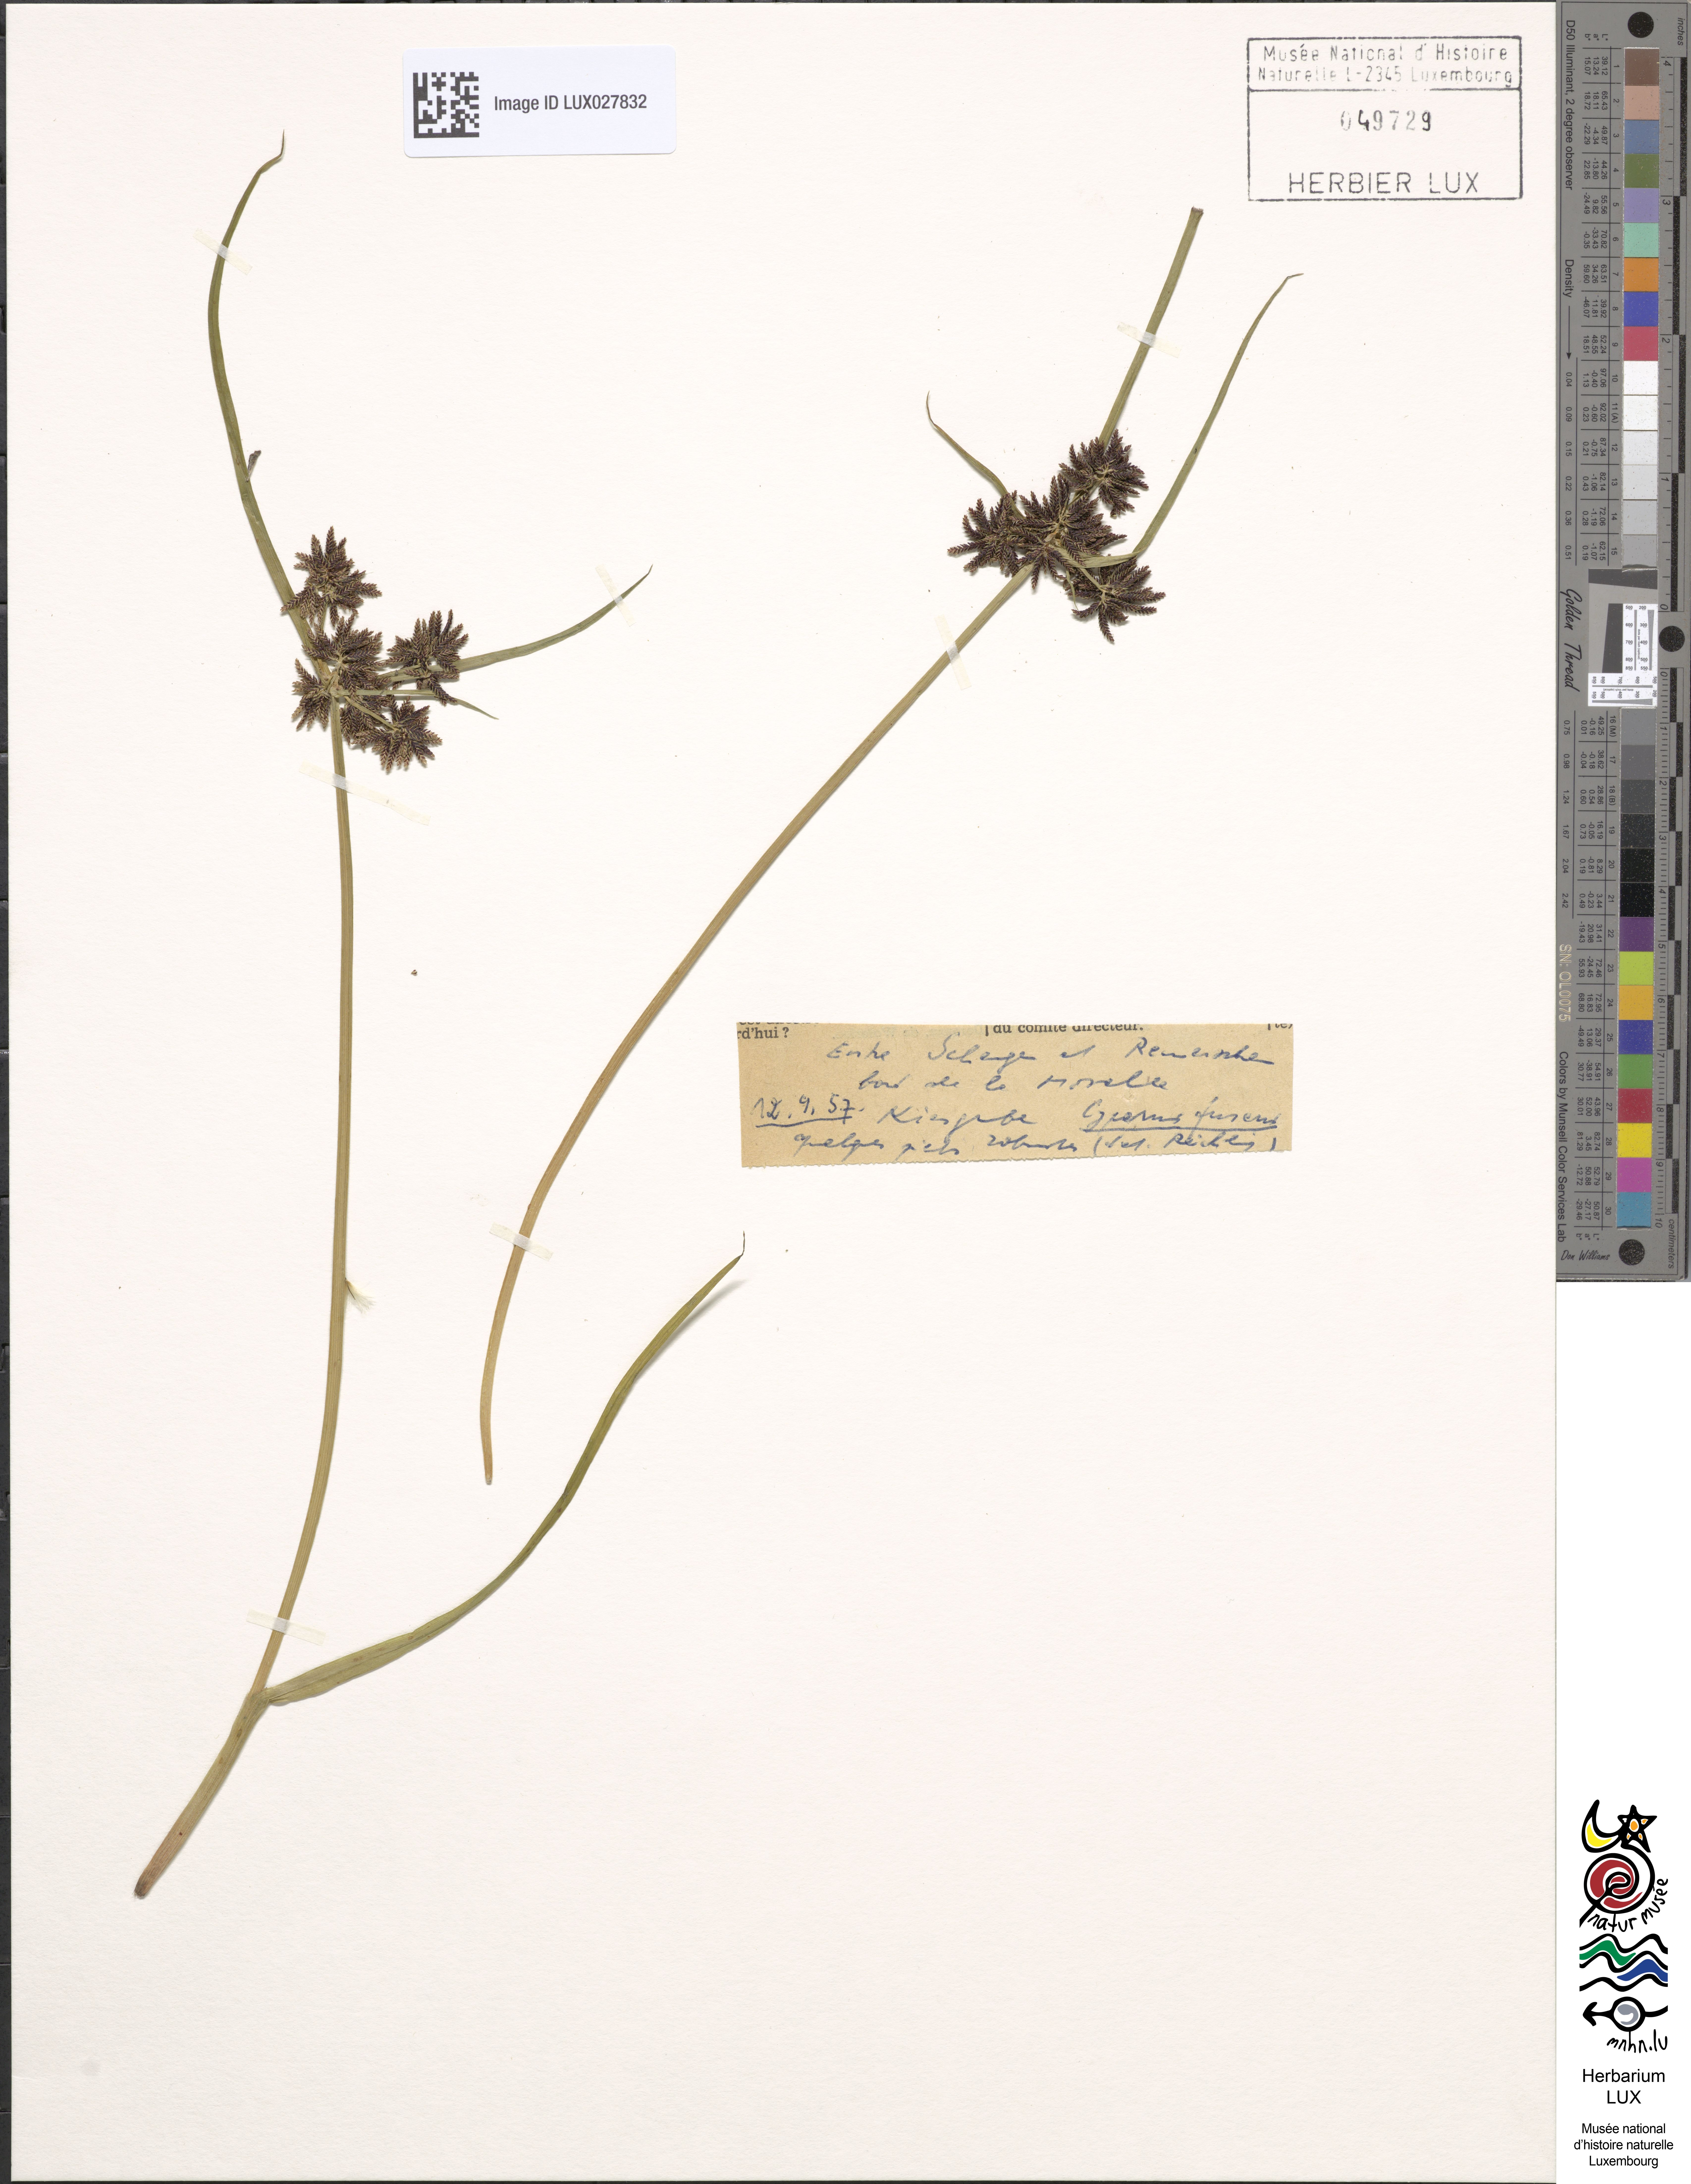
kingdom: Plantae
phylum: Tracheophyta
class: Liliopsida
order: Poales
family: Cyperaceae
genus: Cyperus
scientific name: Cyperus fuscus
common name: Brown galingale
